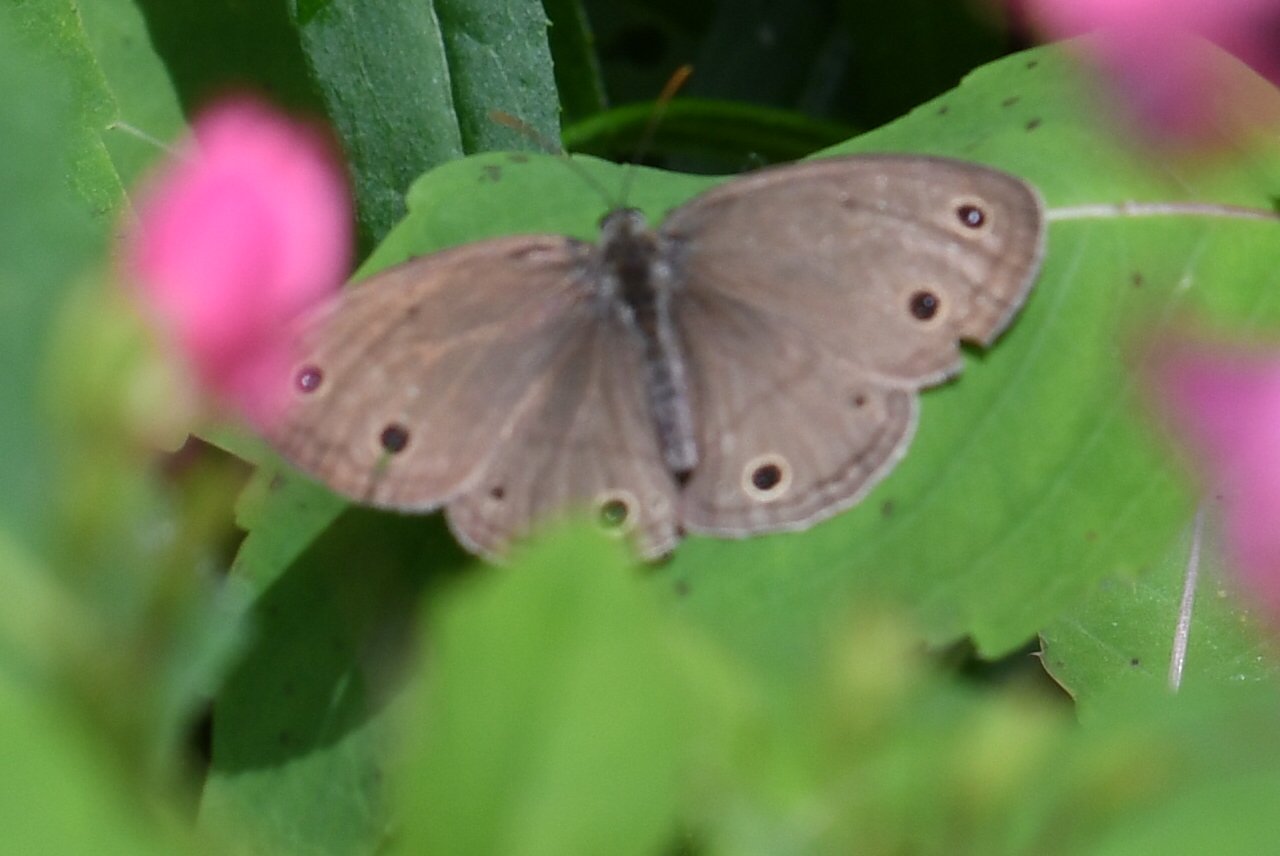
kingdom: Animalia
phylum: Arthropoda
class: Insecta
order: Lepidoptera
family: Nymphalidae
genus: Euptychia
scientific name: Euptychia cymela
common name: Little Wood Satyr
